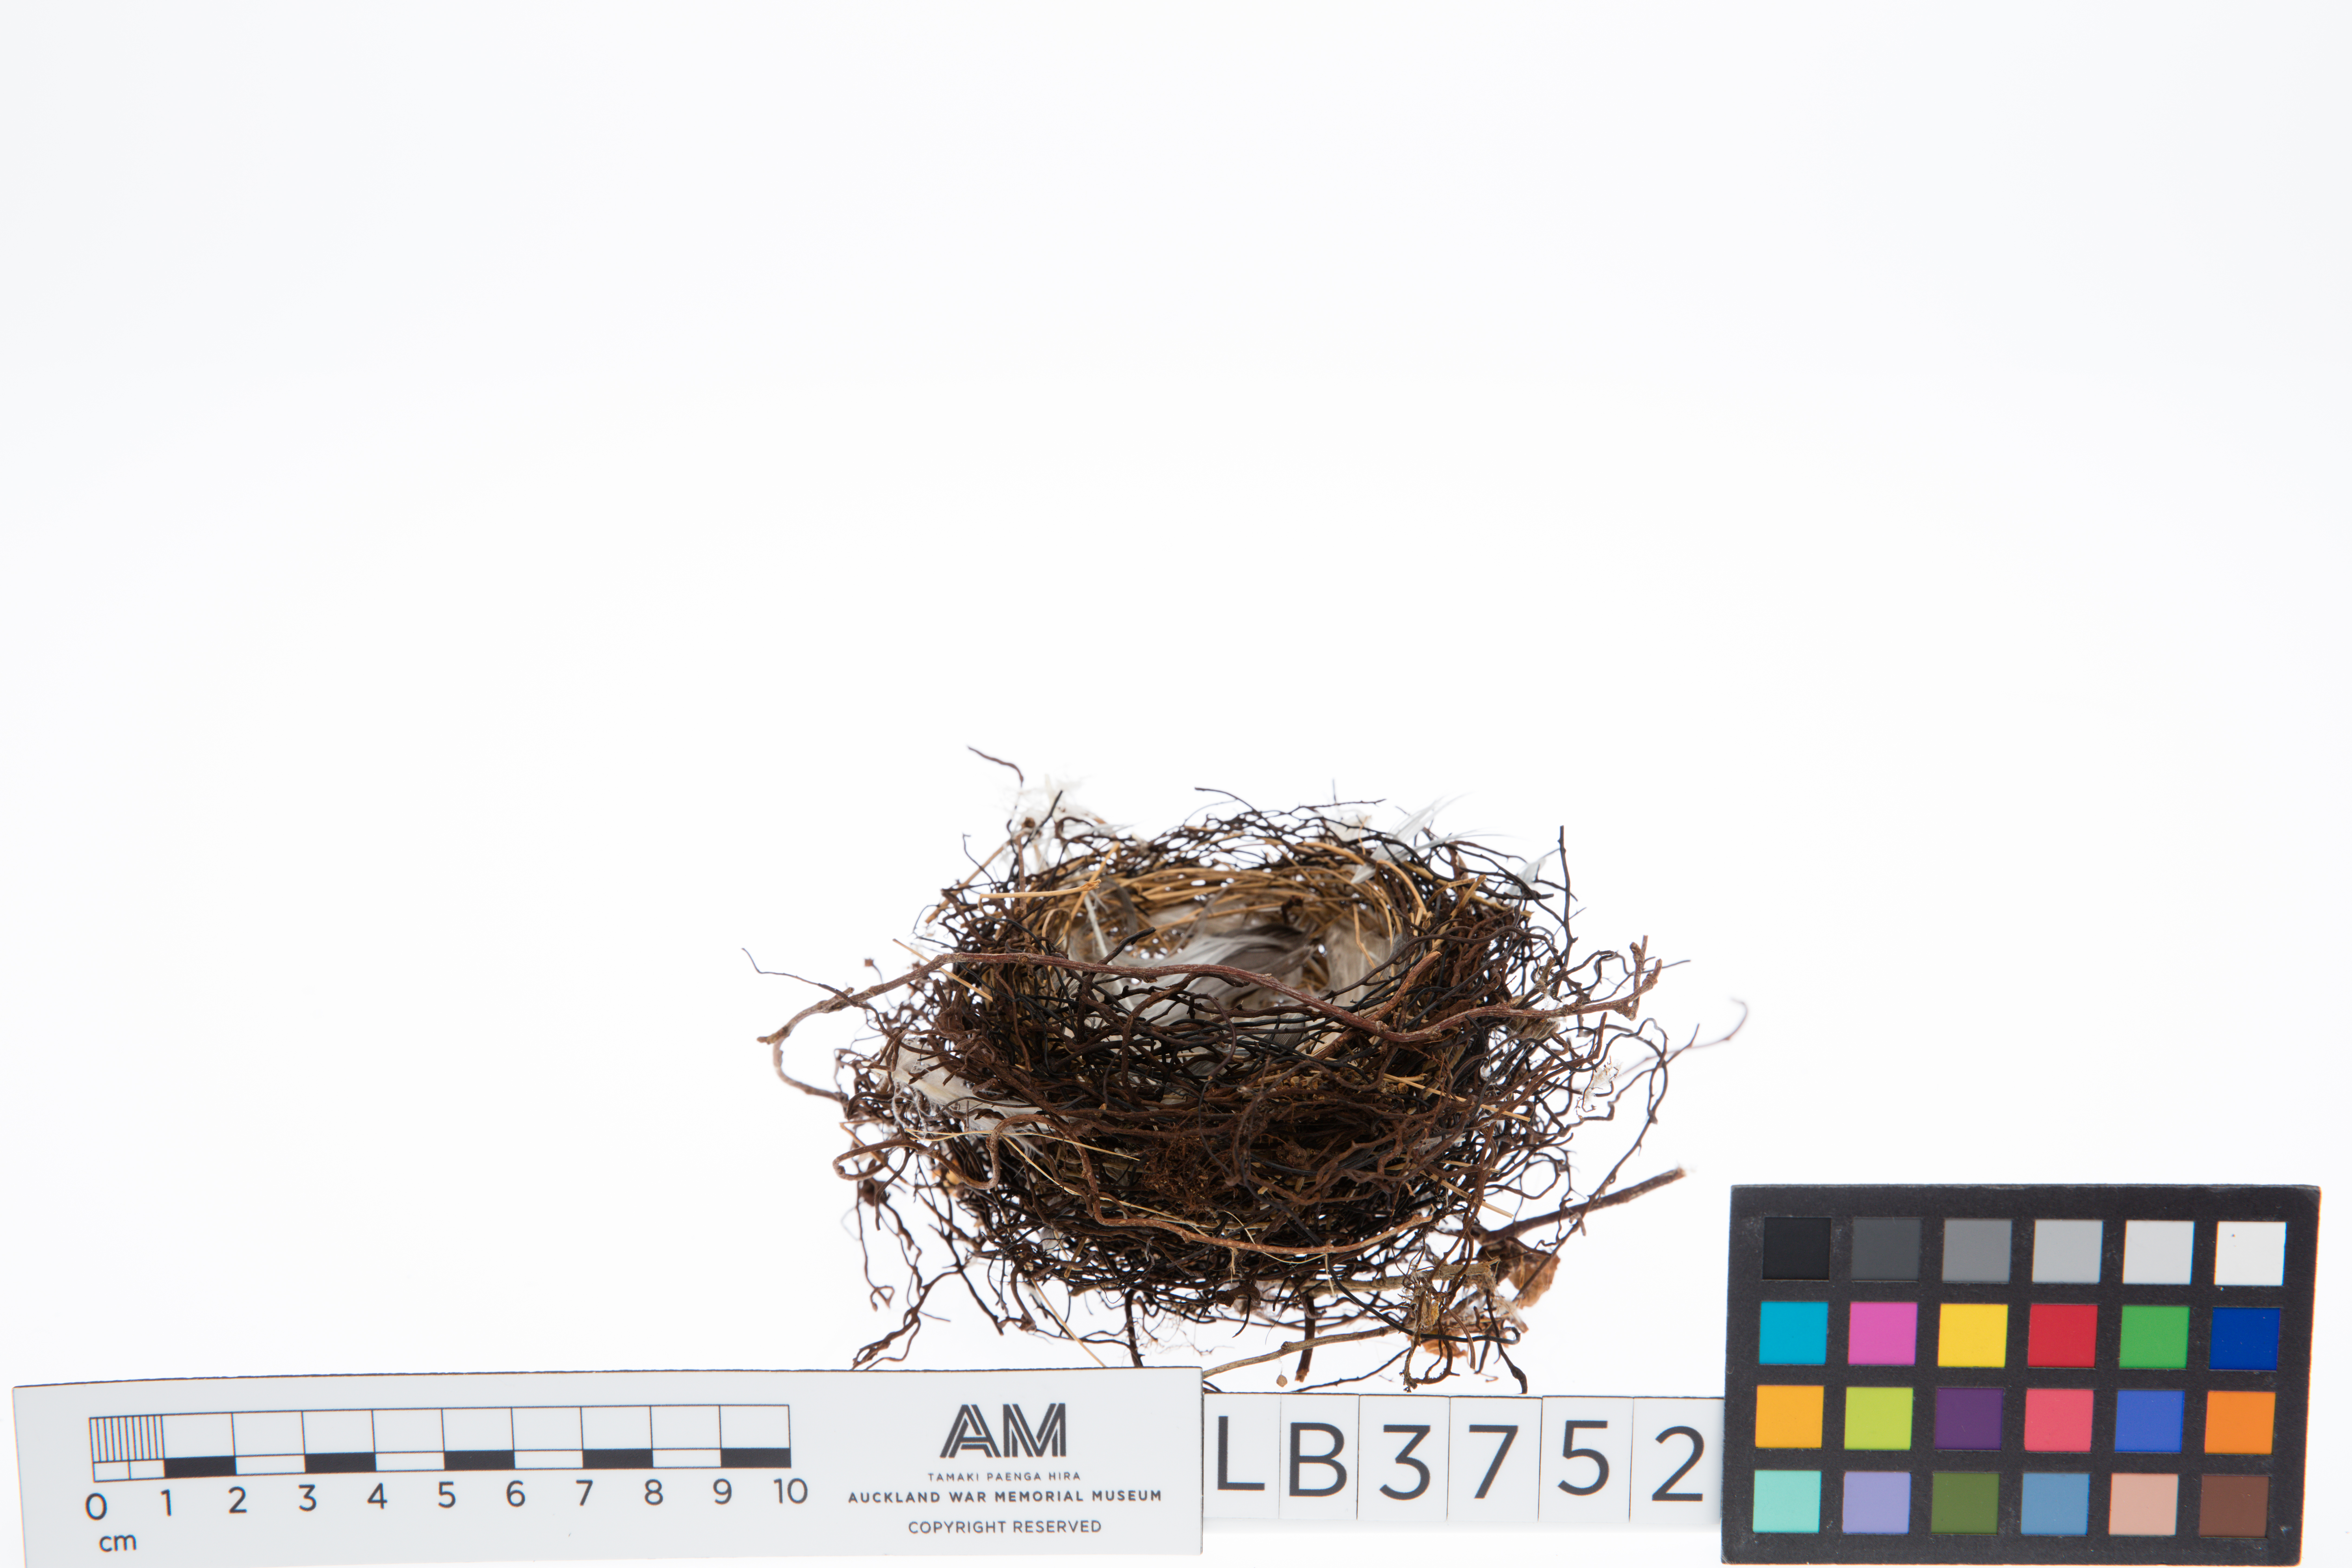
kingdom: Animalia
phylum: Chordata
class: Aves
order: Passeriformes
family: Meliphagidae
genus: Anthornis
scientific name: Anthornis melanura
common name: New zealand bellbird
